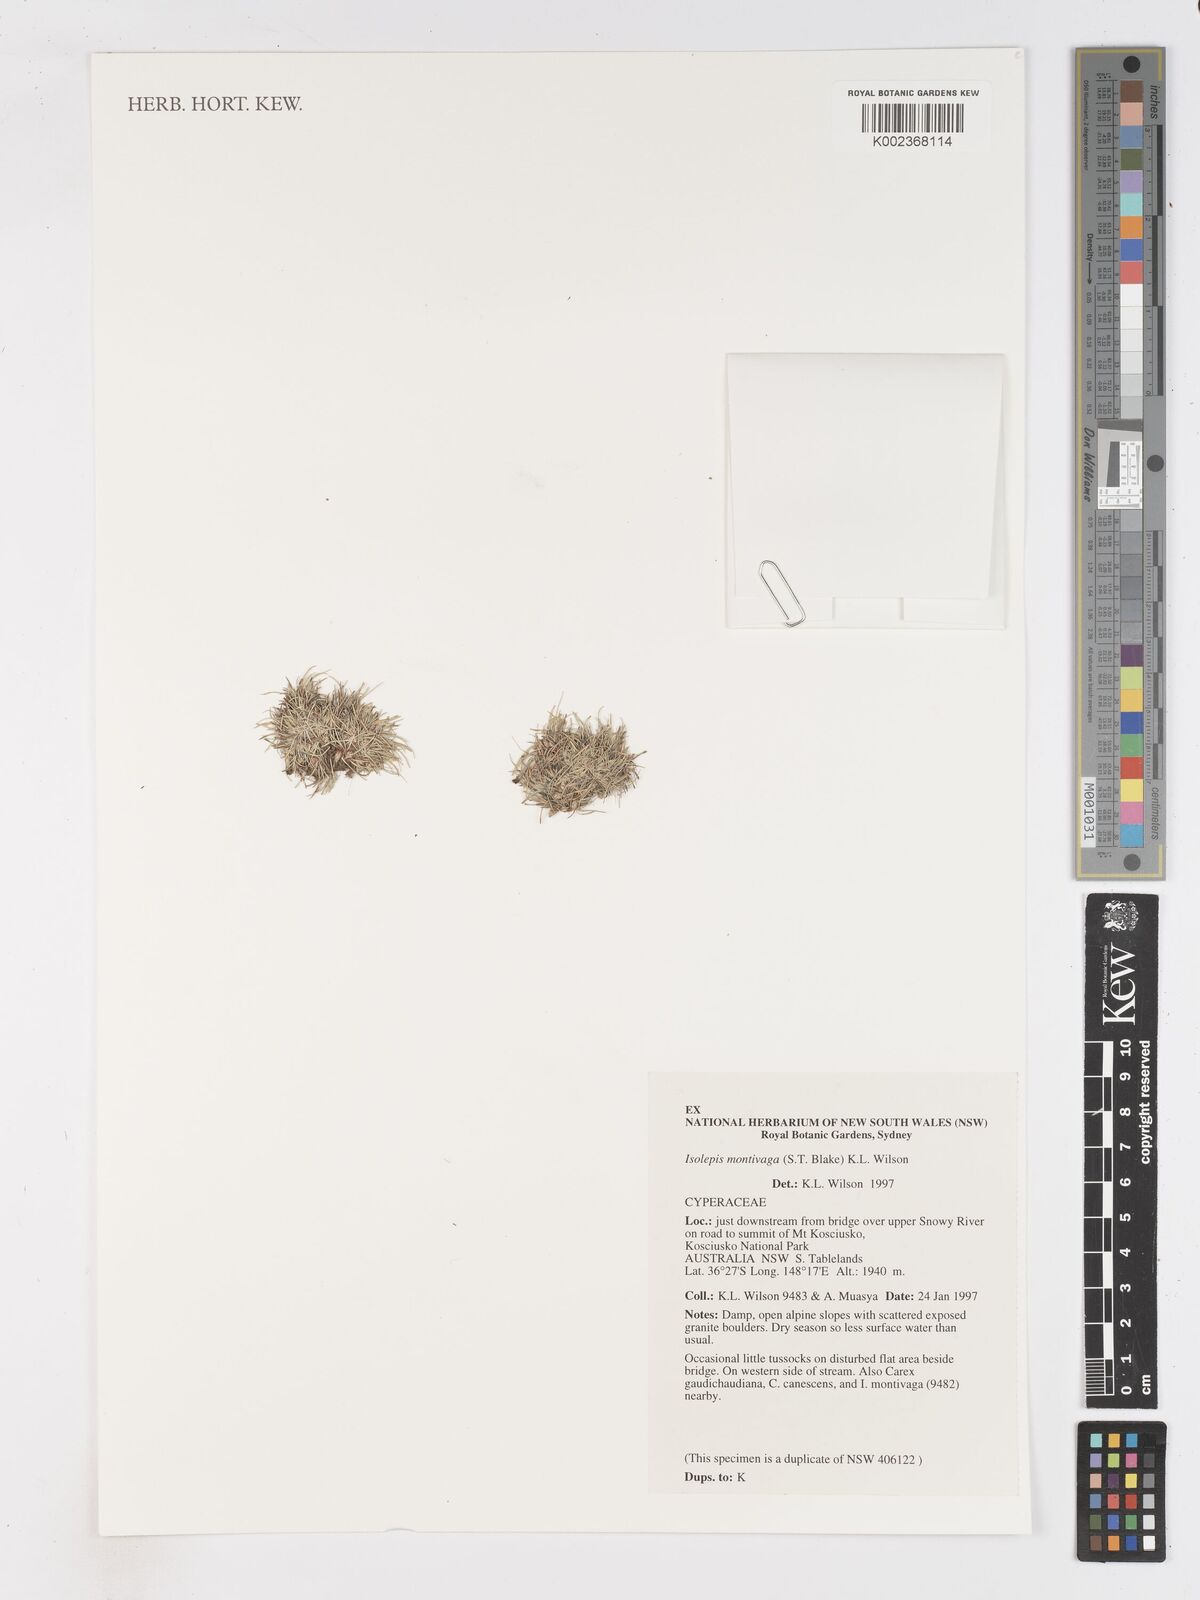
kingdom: Plantae
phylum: Tracheophyta
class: Liliopsida
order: Poales
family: Cyperaceae
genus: Isolepis
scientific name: Isolepis montivaga
